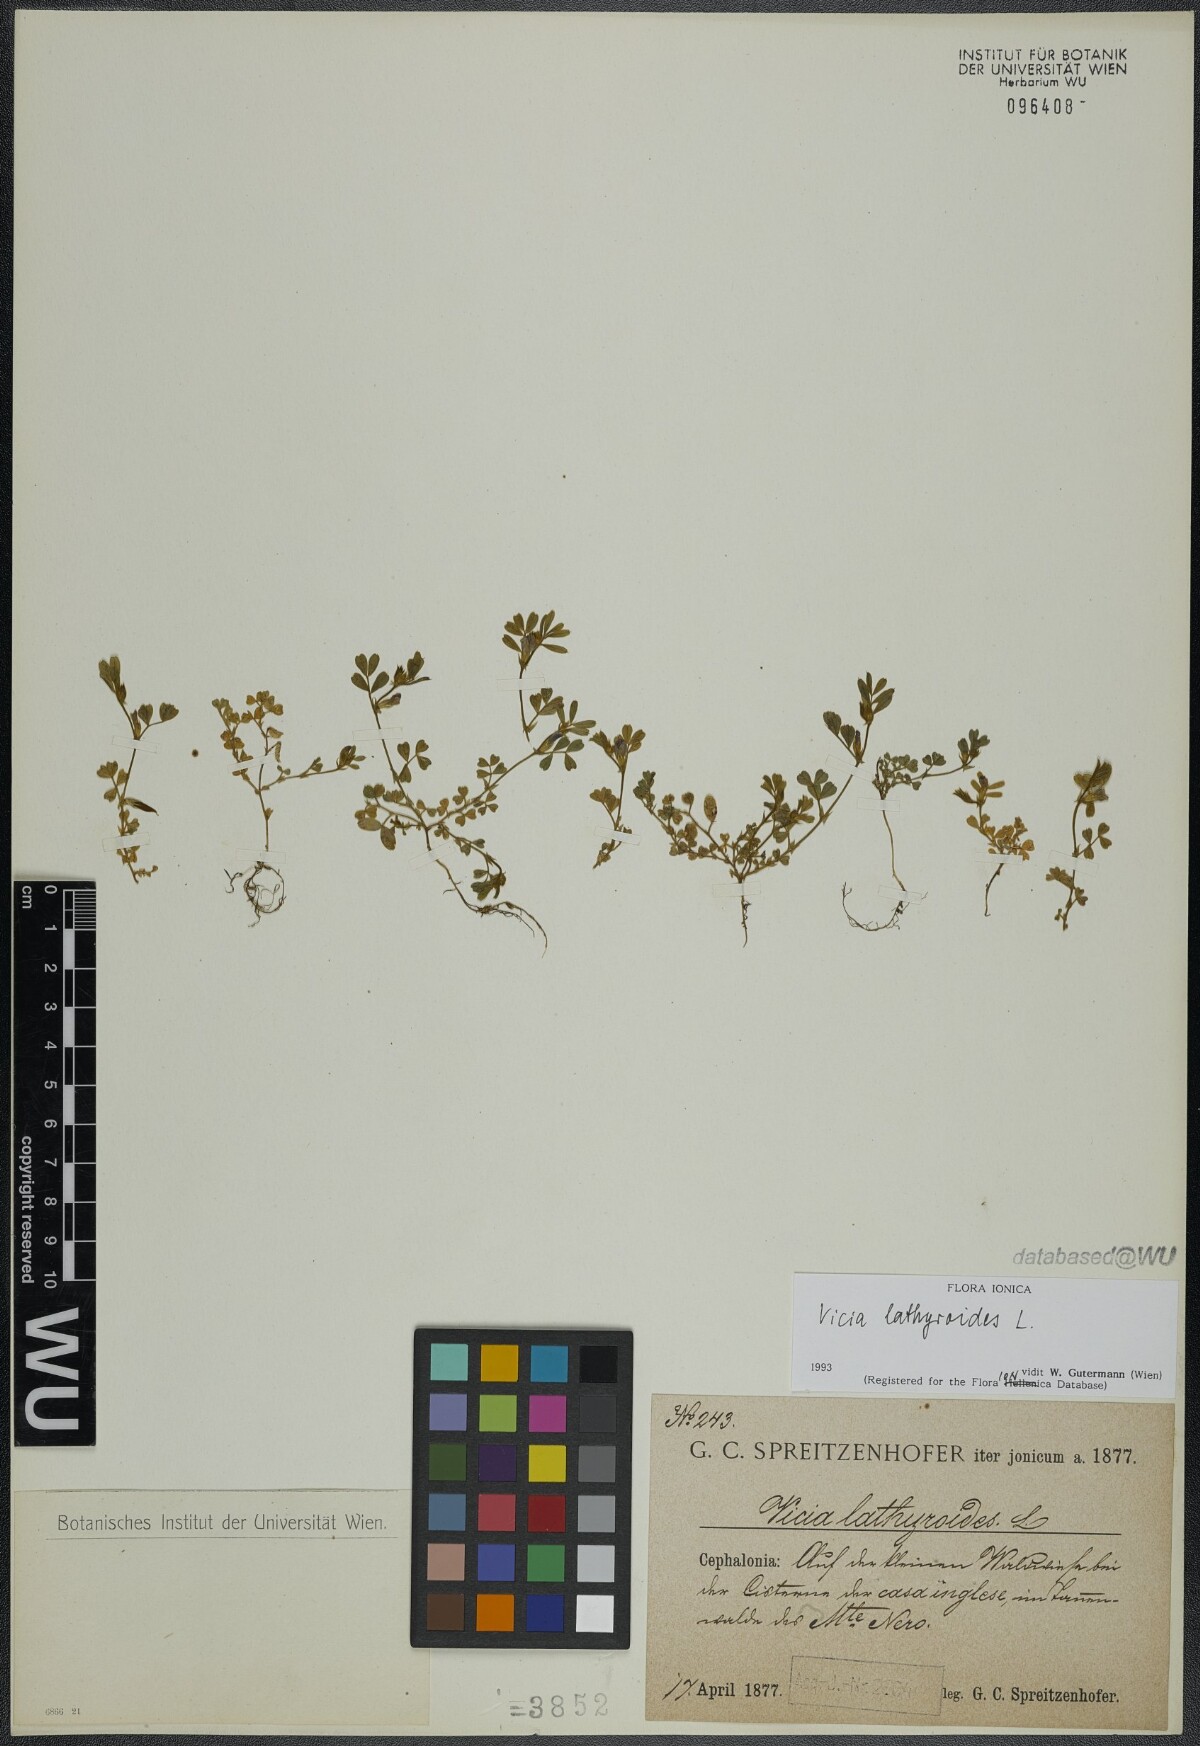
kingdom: Plantae
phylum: Tracheophyta
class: Magnoliopsida
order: Fabales
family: Fabaceae
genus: Vicia
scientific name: Vicia lathyroides
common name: Spring vetch
